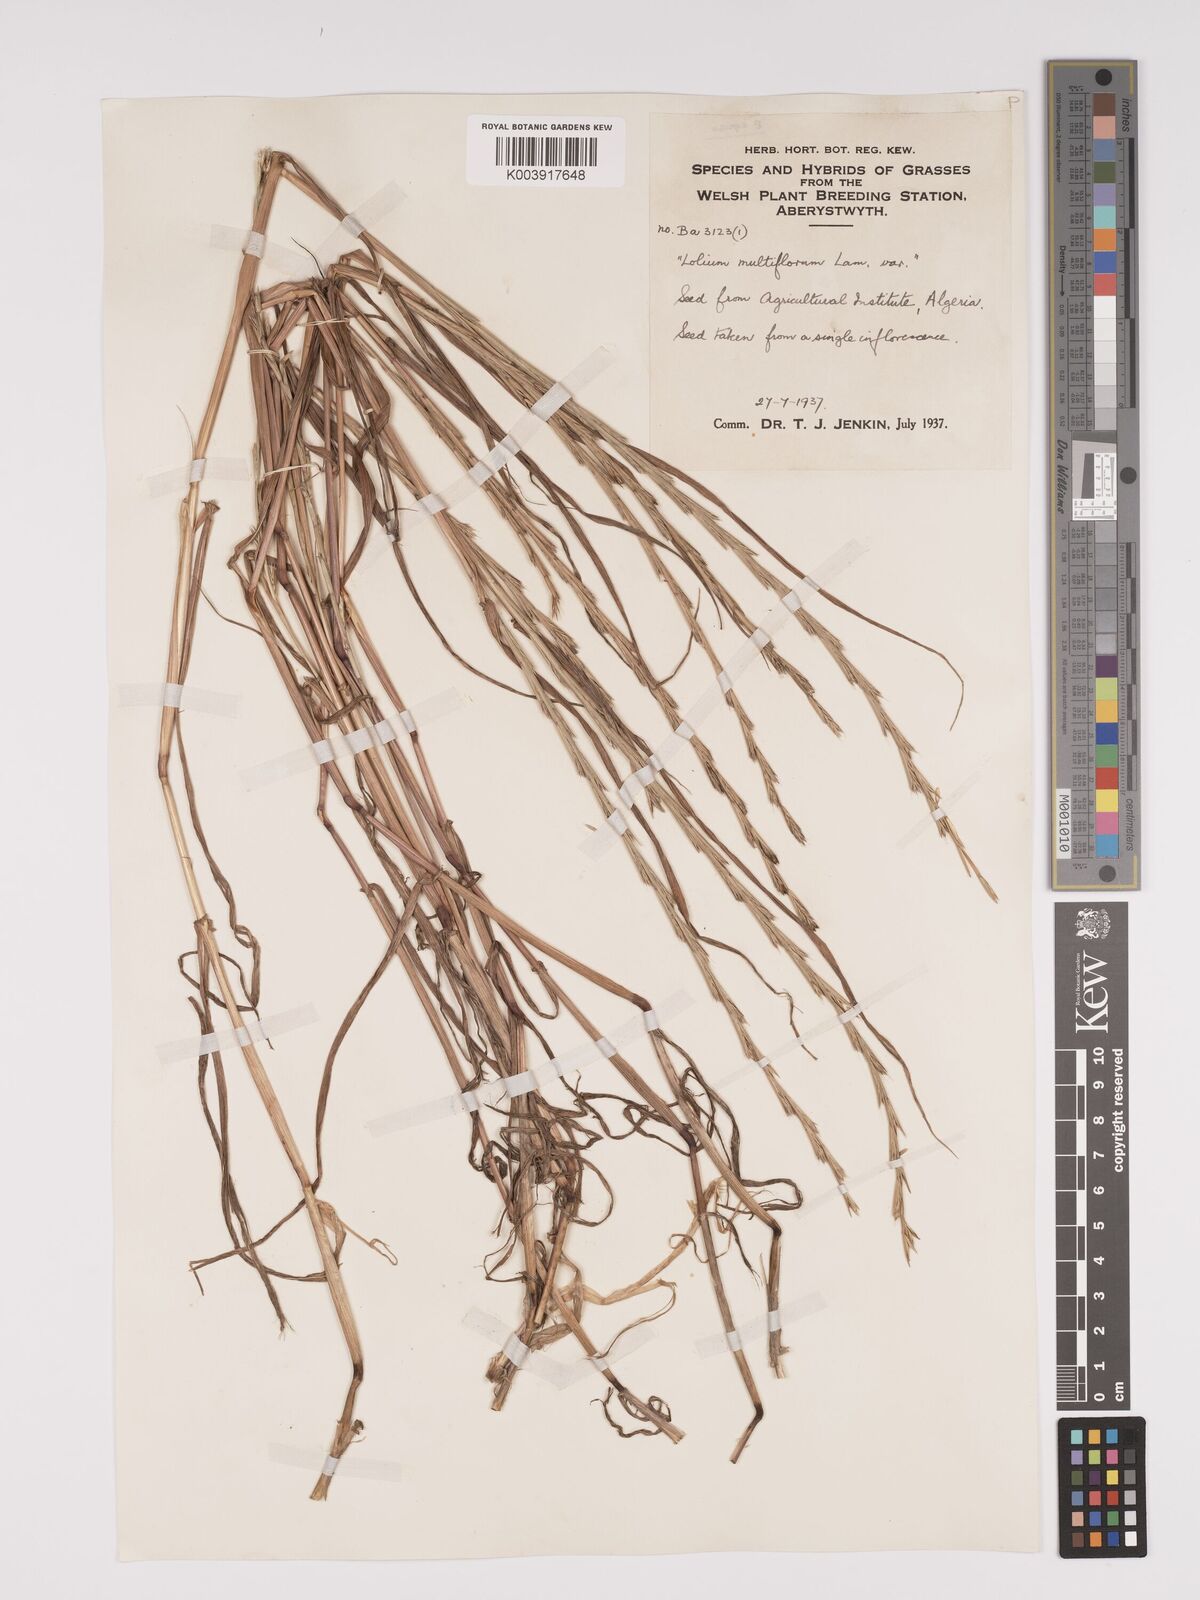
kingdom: Plantae
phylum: Tracheophyta
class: Liliopsida
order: Poales
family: Poaceae
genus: Lolium
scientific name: Lolium multiflorum
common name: Annual ryegrass
